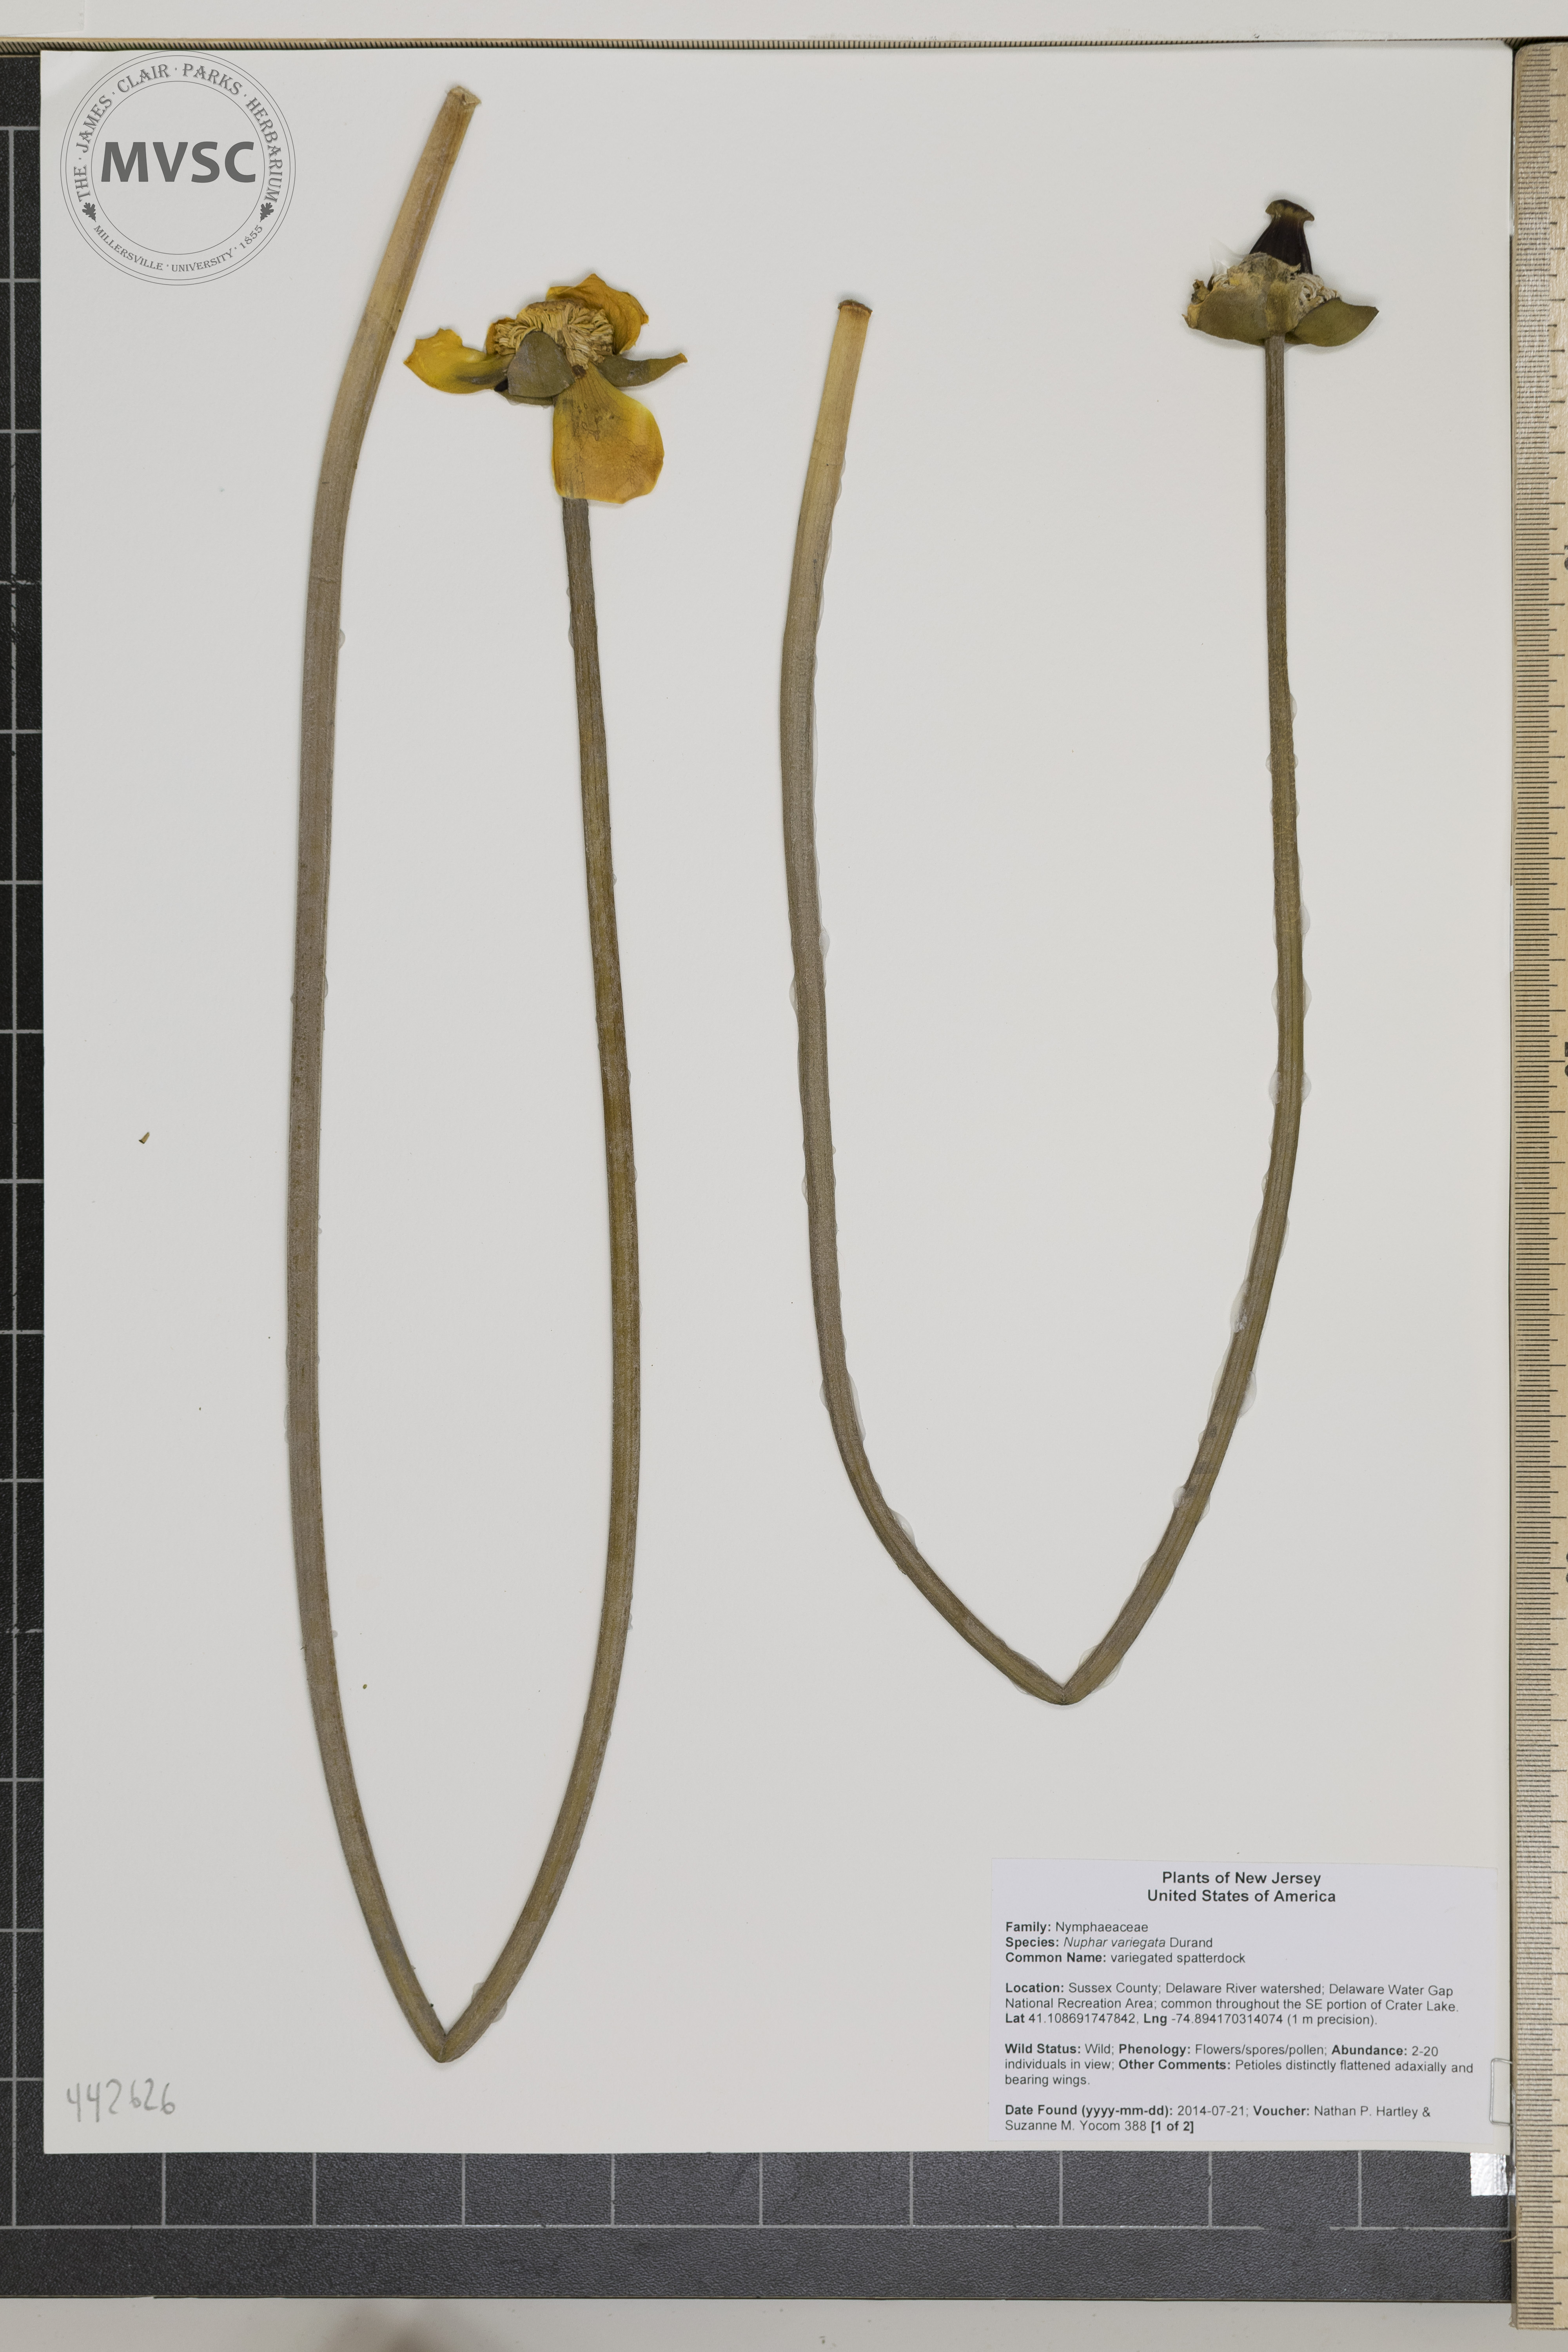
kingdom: Plantae
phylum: Tracheophyta
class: Magnoliopsida
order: Nymphaeales
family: Nymphaeaceae
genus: Nuphar
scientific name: Nuphar variegata
